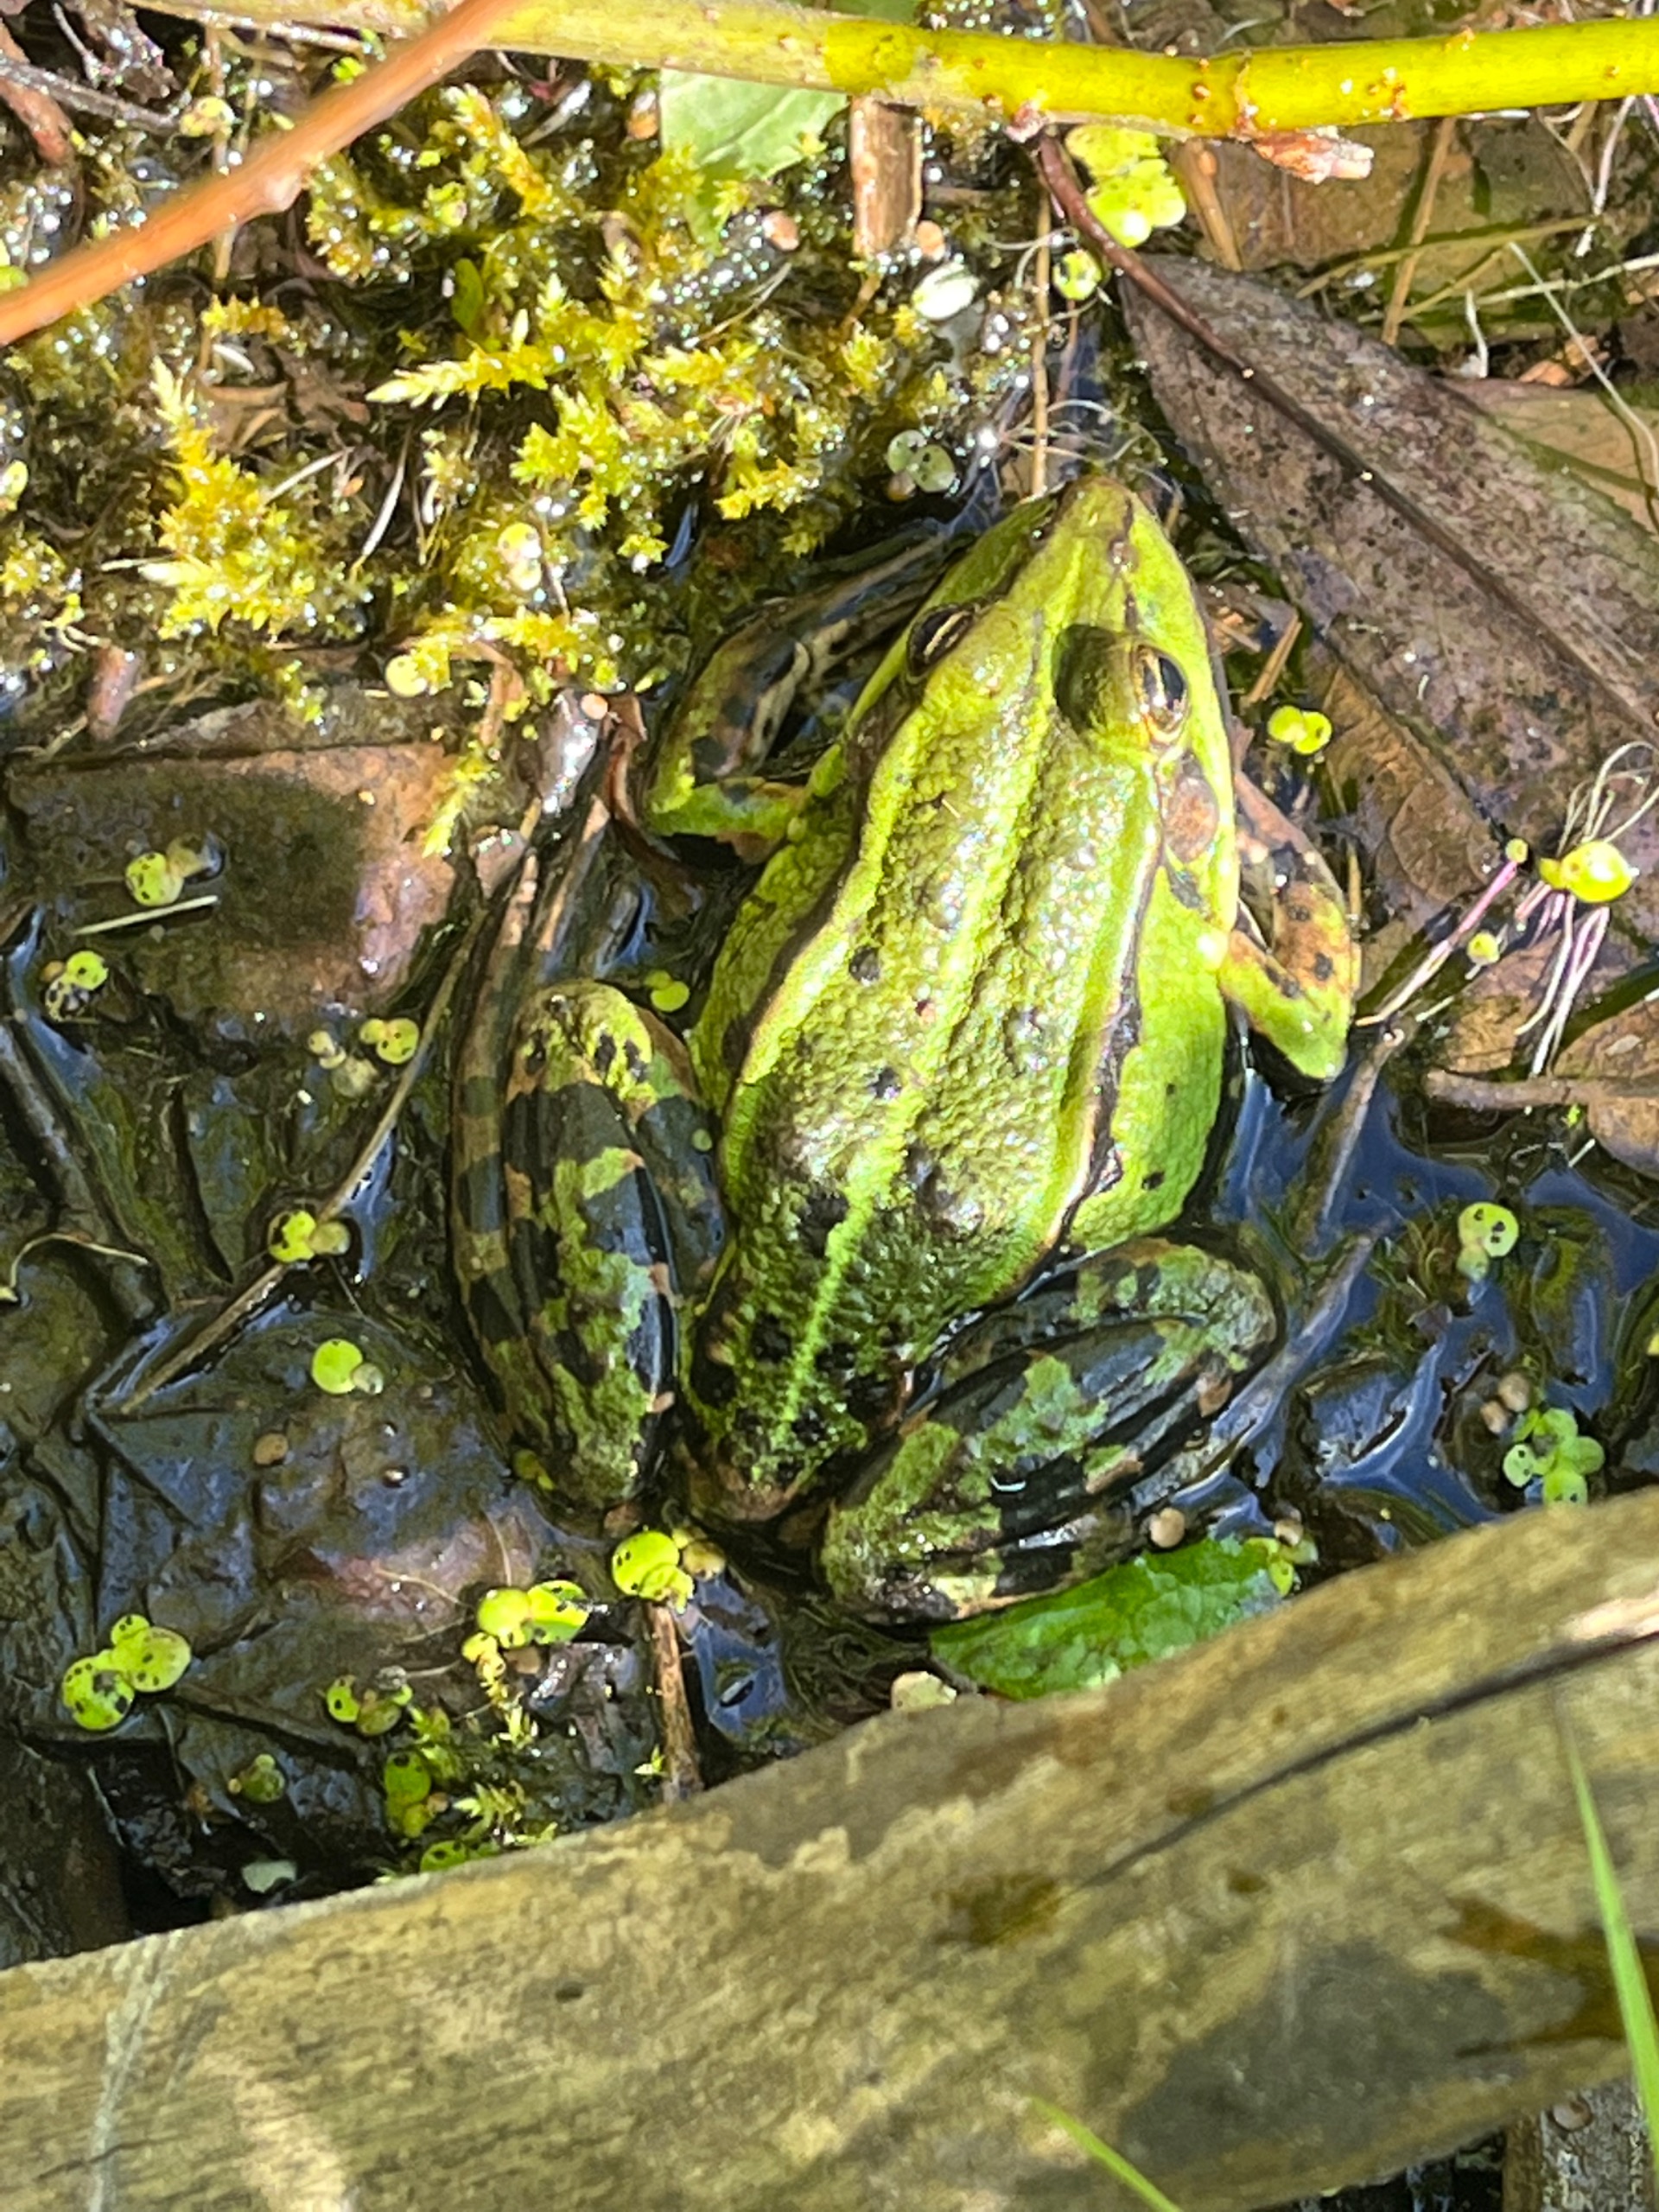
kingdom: Animalia
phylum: Chordata
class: Amphibia
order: Anura
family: Ranidae
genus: Pelophylax
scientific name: Pelophylax lessonae
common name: Grøn frø
